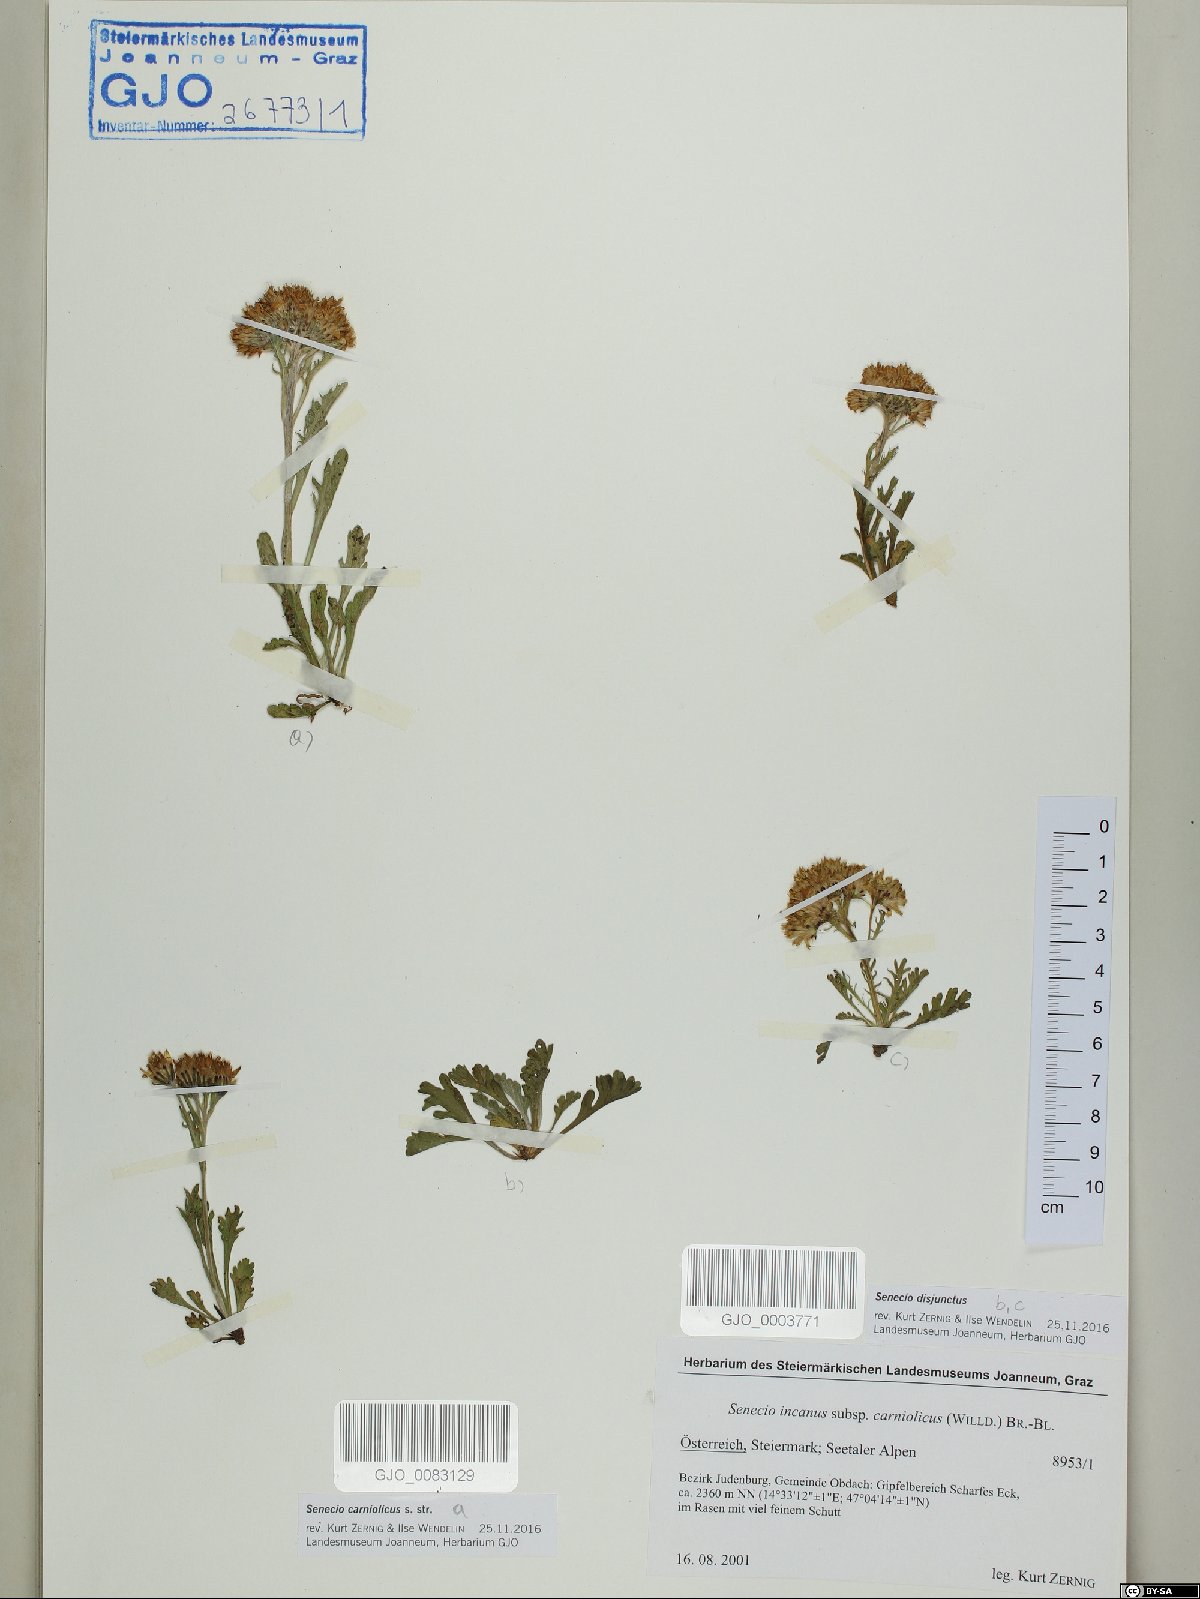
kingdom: Plantae
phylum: Tracheophyta
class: Magnoliopsida
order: Asterales
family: Asteraceae
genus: Jacobaea
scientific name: Jacobaea carniolica
